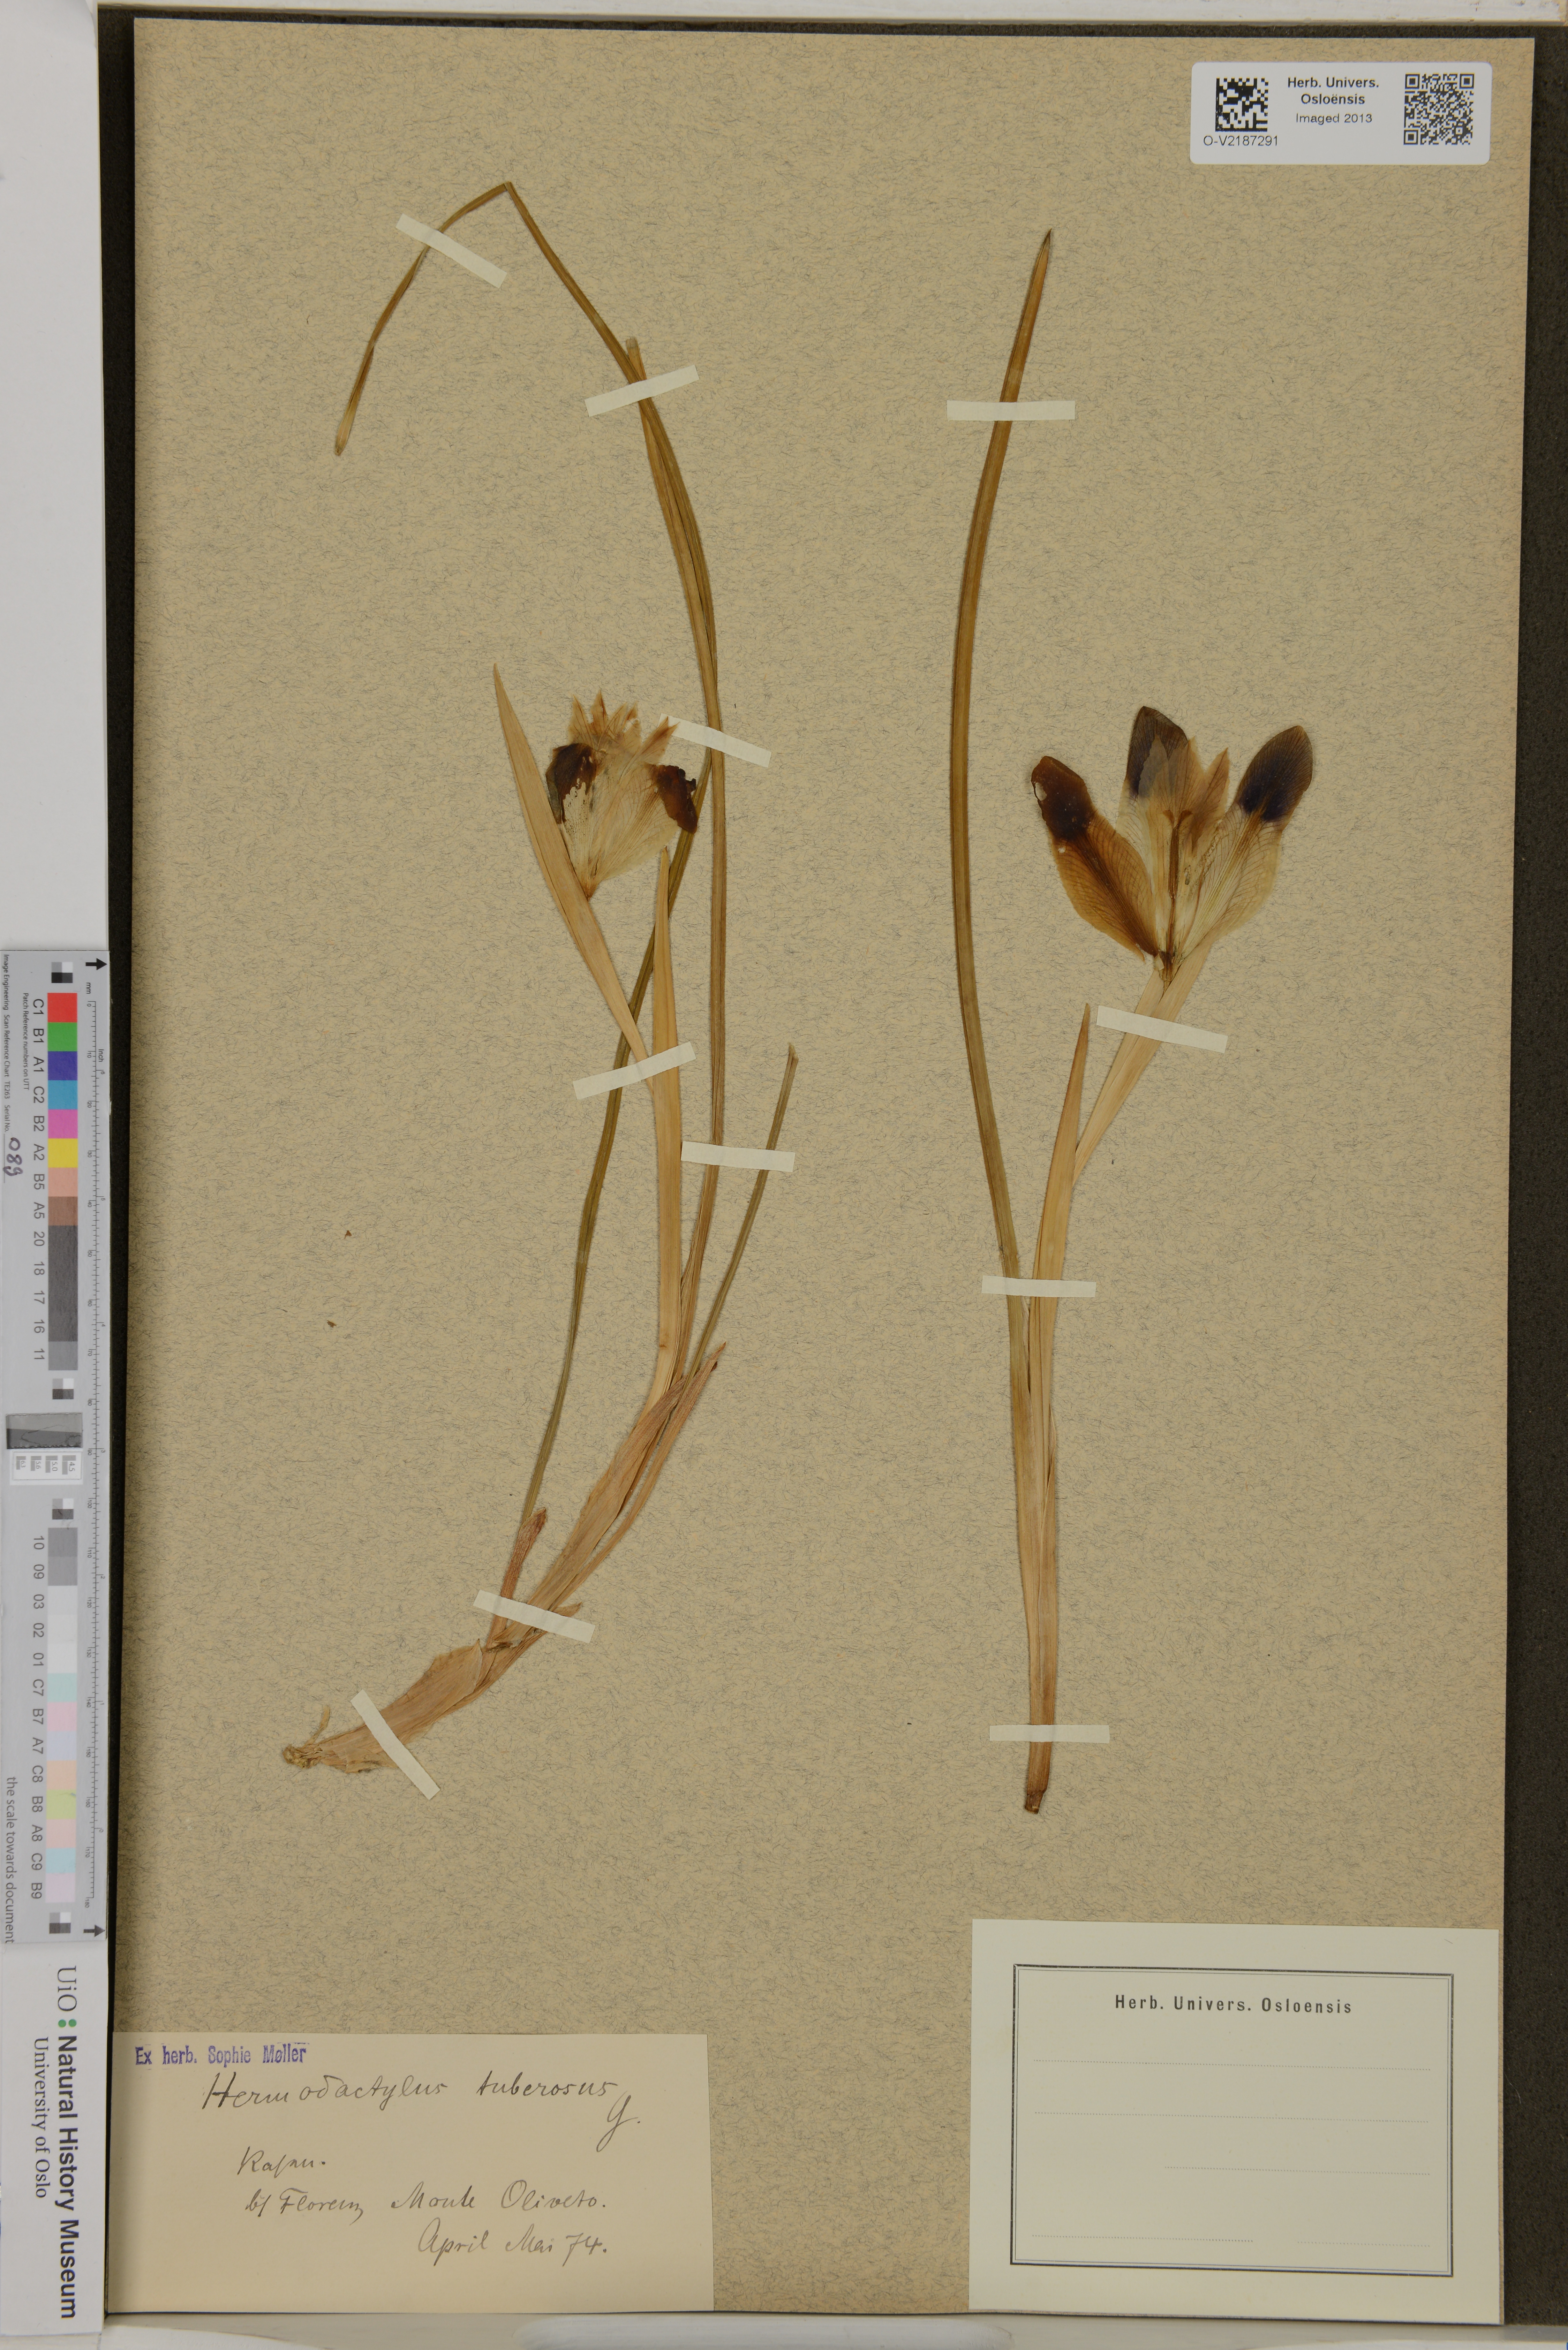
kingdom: Plantae
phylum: Tracheophyta
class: Liliopsida
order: Asparagales
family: Iridaceae
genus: Iris
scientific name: Iris tuberosa
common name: Snake's-head iris
